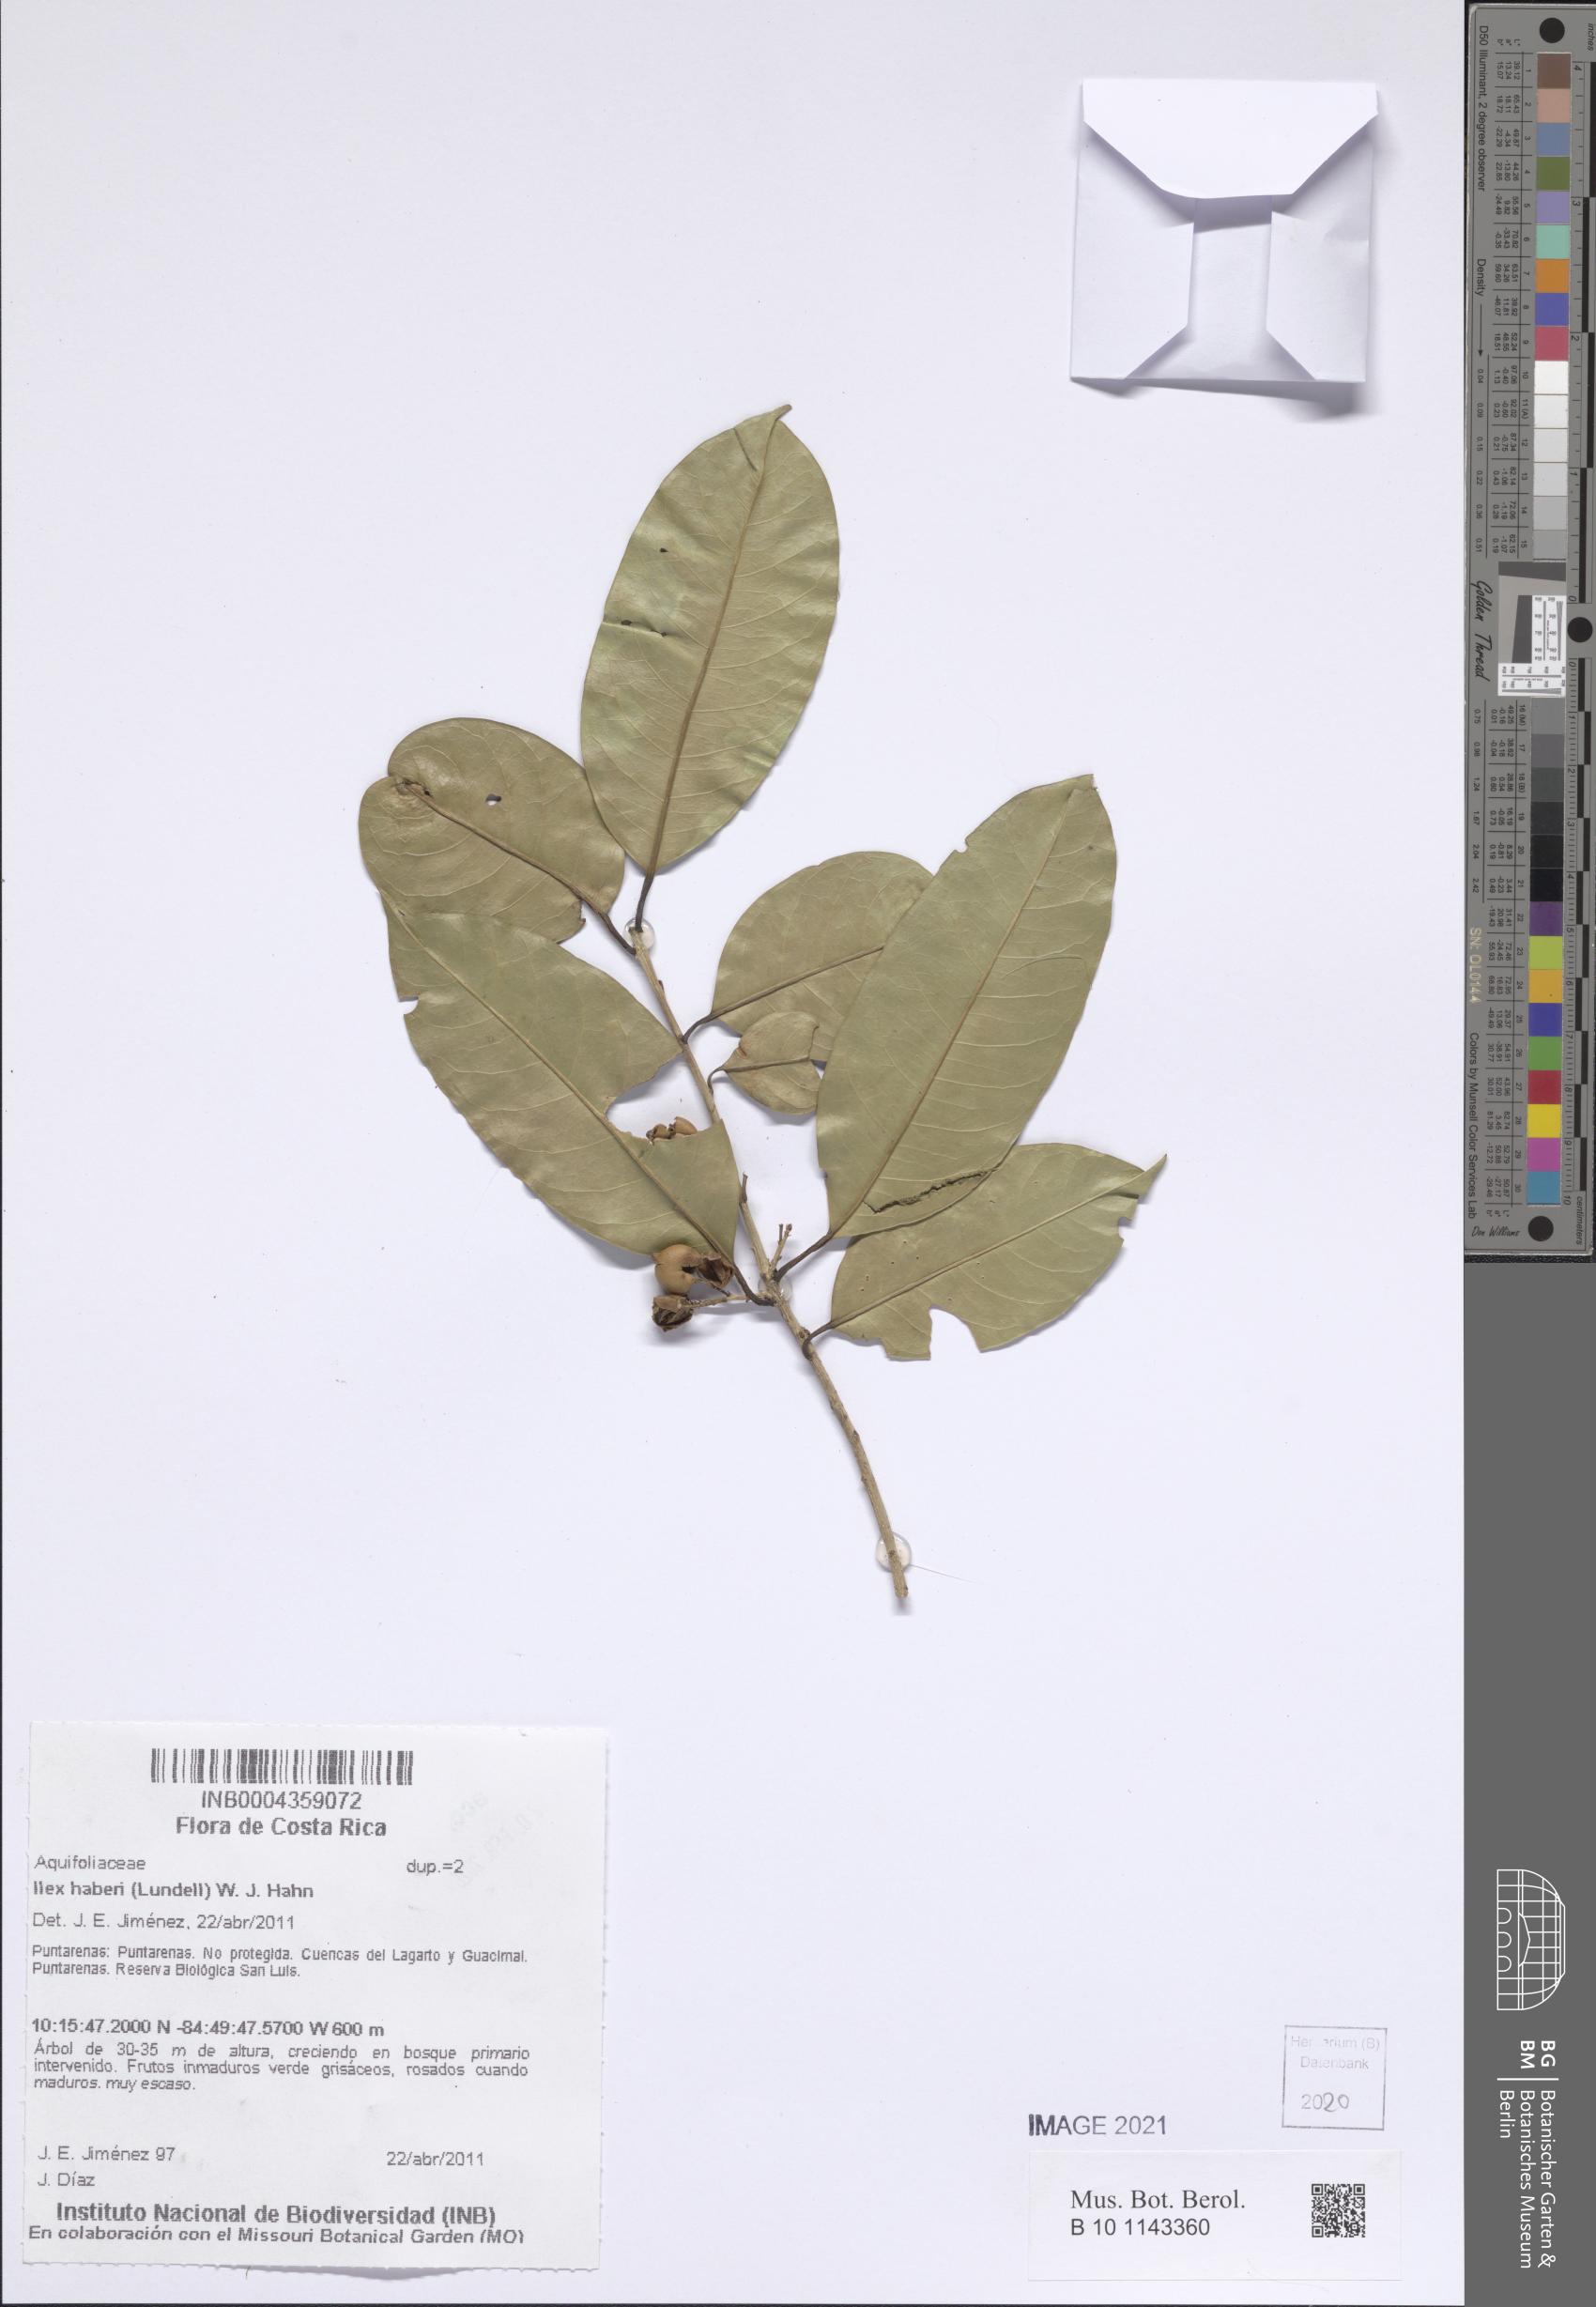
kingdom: Plantae
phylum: Tracheophyta
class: Magnoliopsida
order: Aquifoliales
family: Aquifoliaceae
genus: Ilex
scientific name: Ilex haberi
